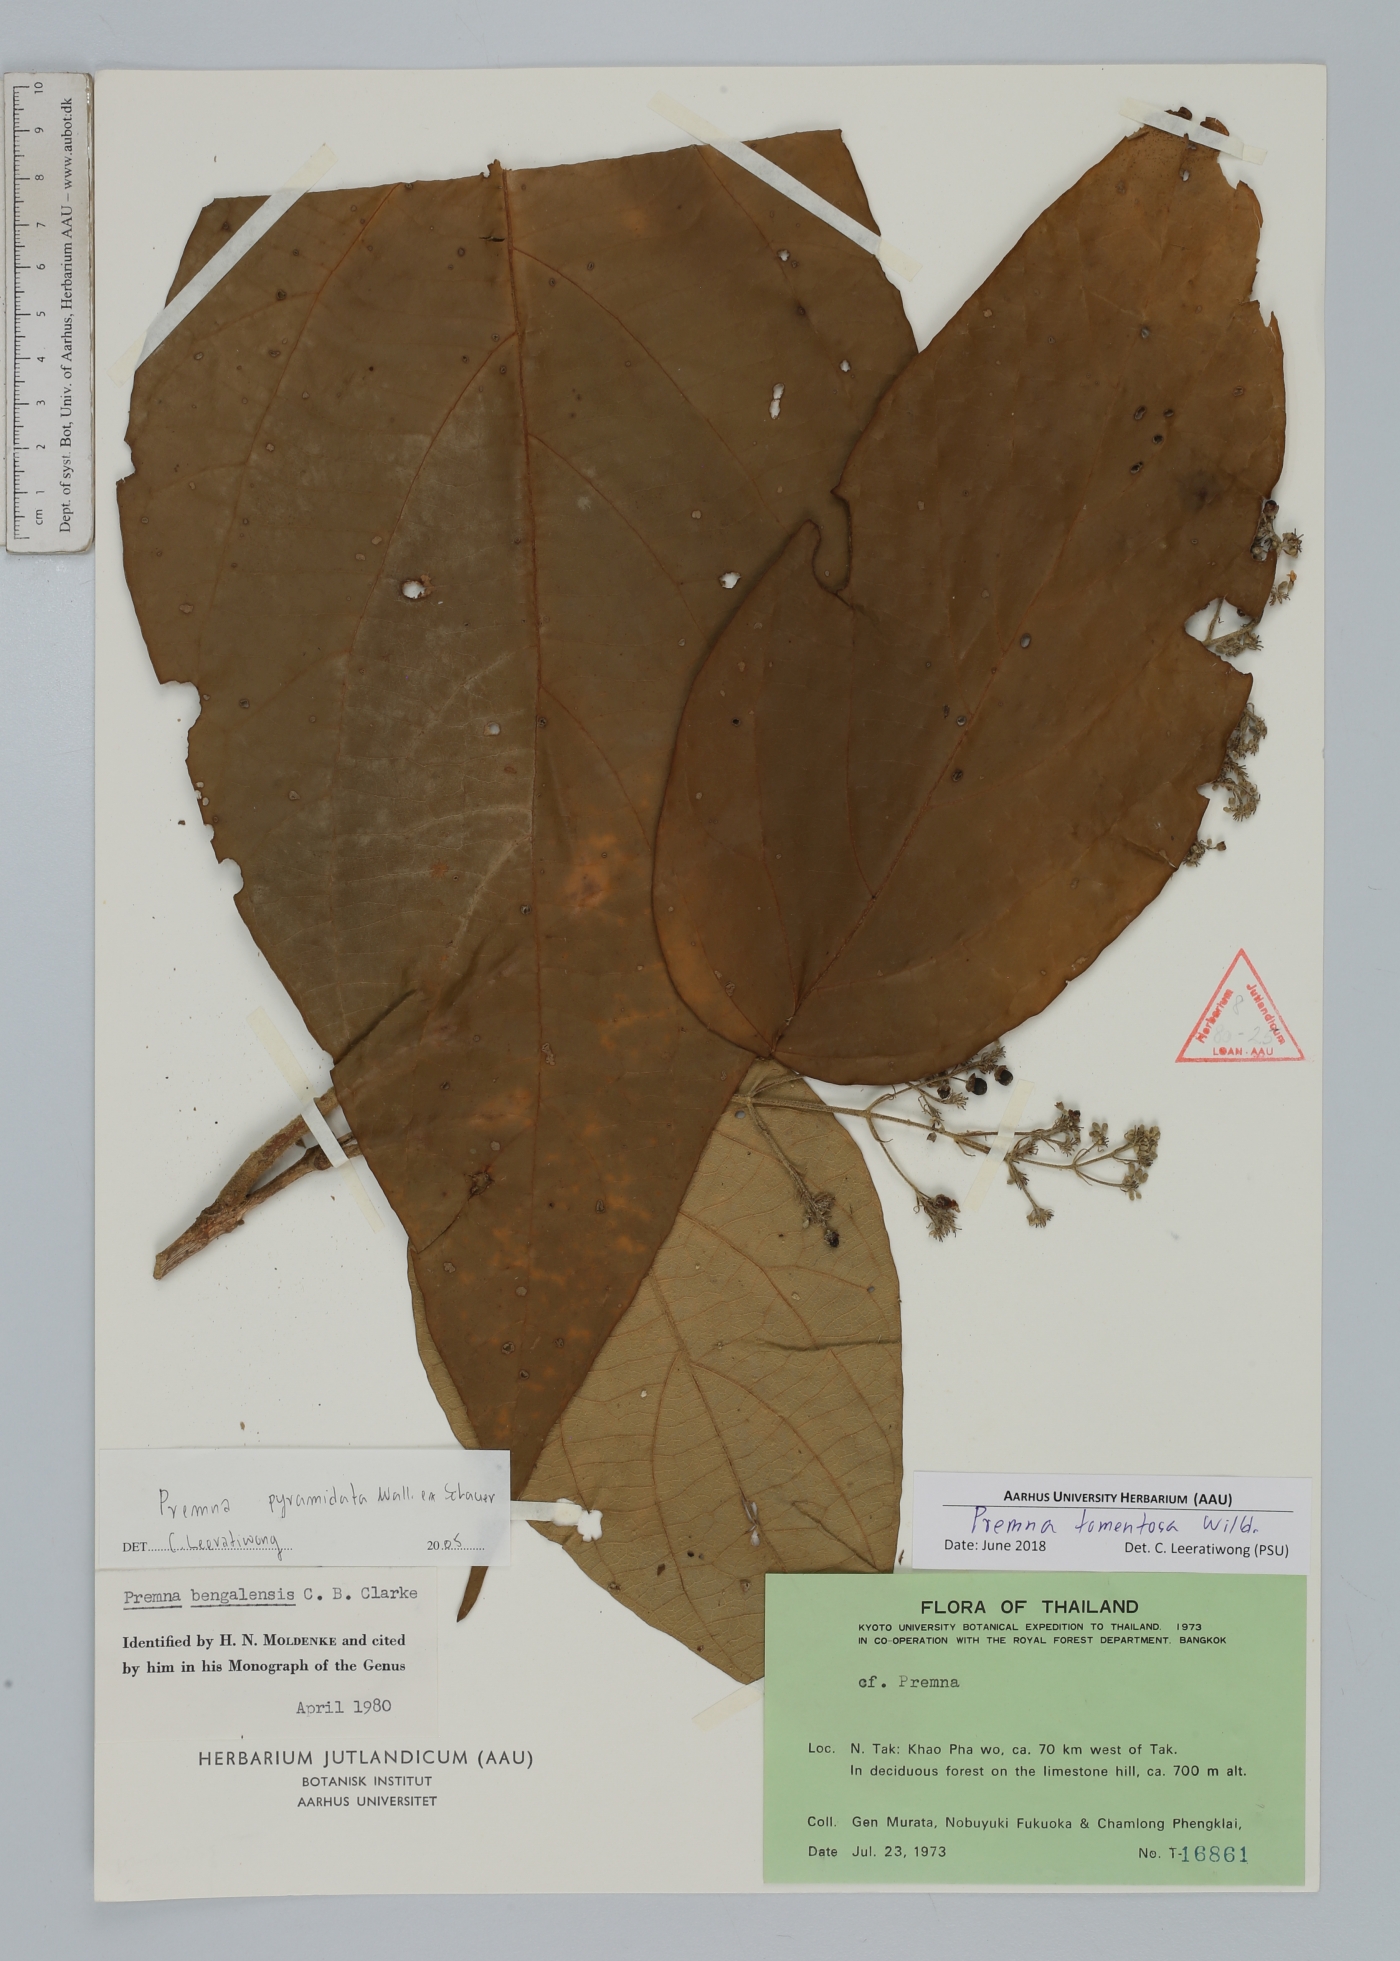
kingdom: Plantae
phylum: Tracheophyta
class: Magnoliopsida
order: Lamiales
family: Lamiaceae
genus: Premna
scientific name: Premna tomentosa
